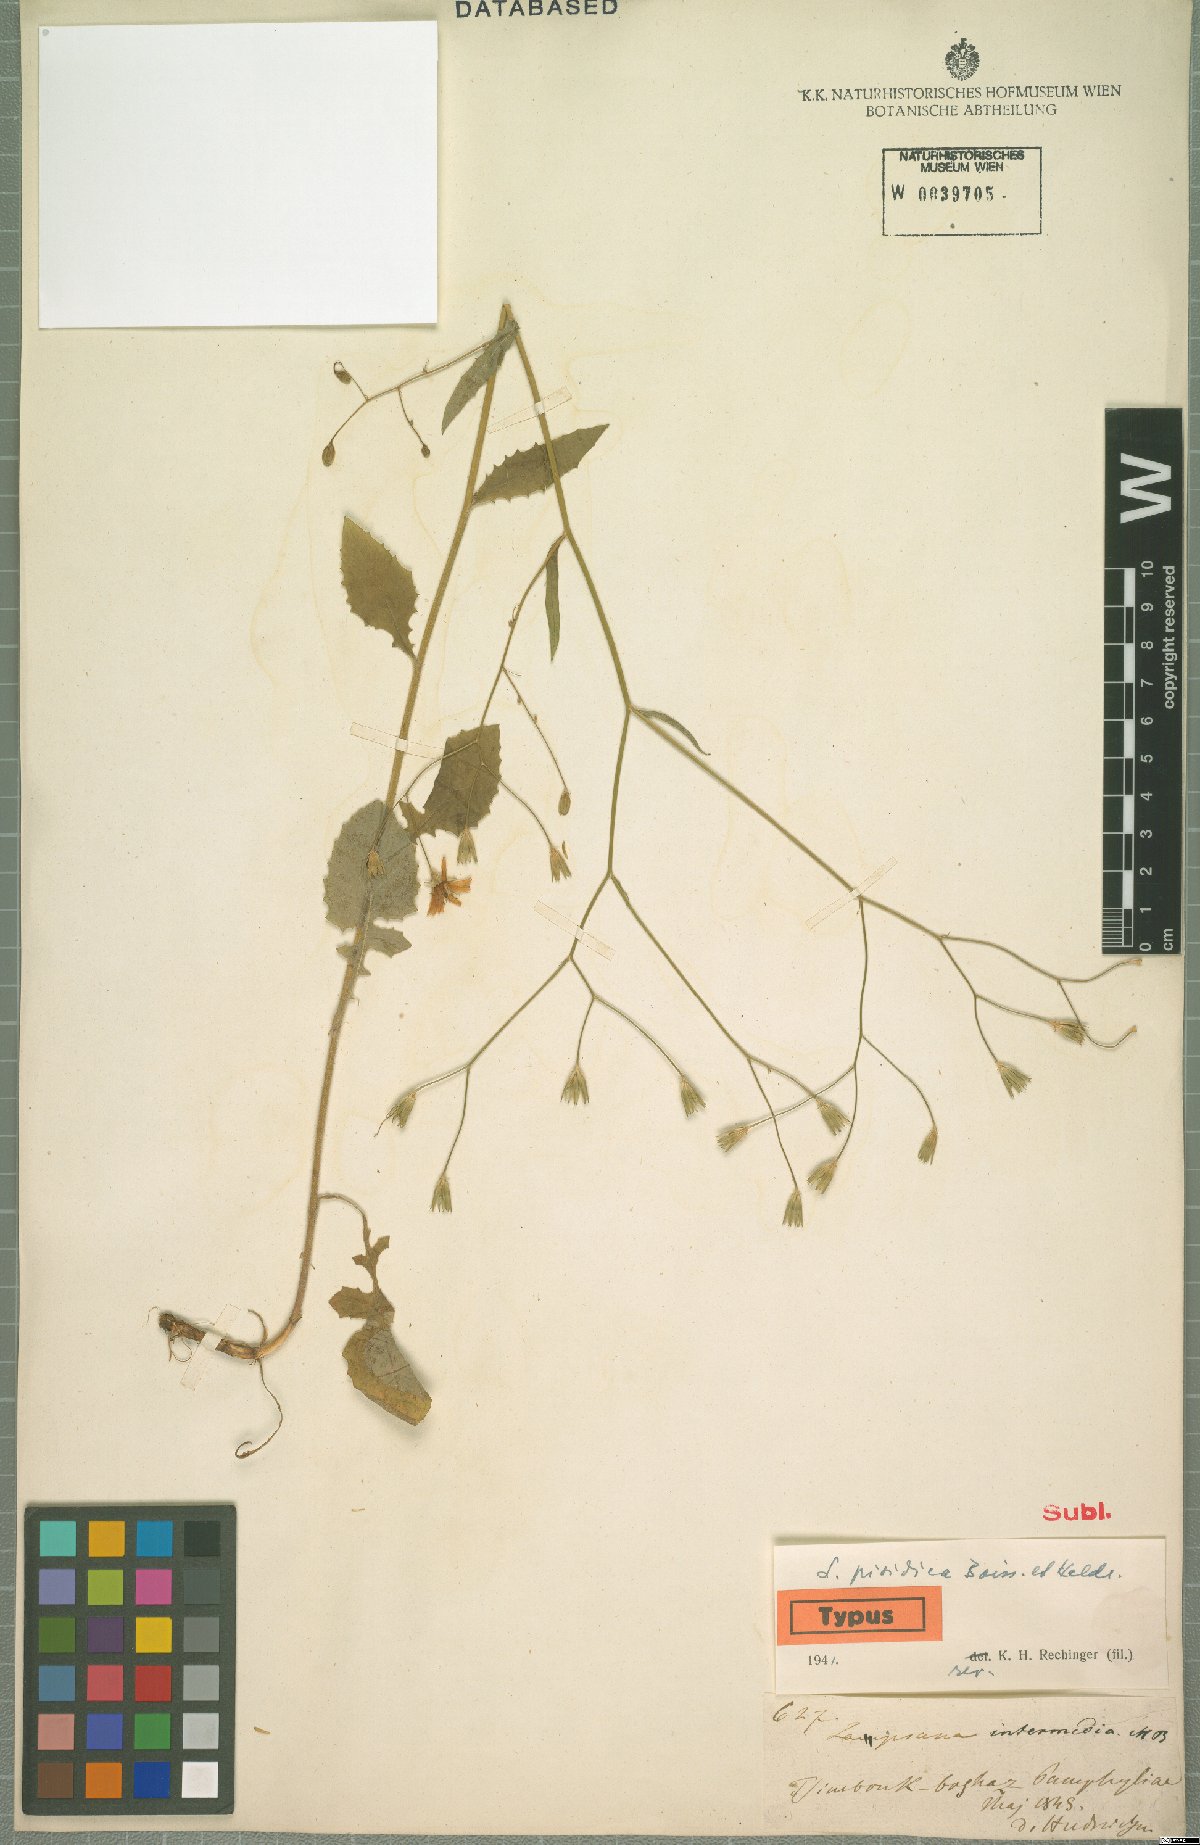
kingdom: Plantae
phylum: Tracheophyta
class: Magnoliopsida
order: Asterales
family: Asteraceae
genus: Lapsana
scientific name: Lapsana communis
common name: Nipplewort
